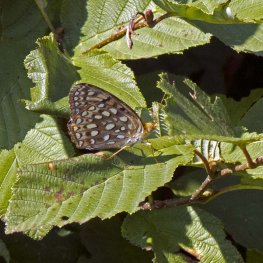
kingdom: Animalia
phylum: Arthropoda
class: Insecta
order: Lepidoptera
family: Nymphalidae
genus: Speyeria
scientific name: Speyeria atlantis
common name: Atlantis Fritillary
